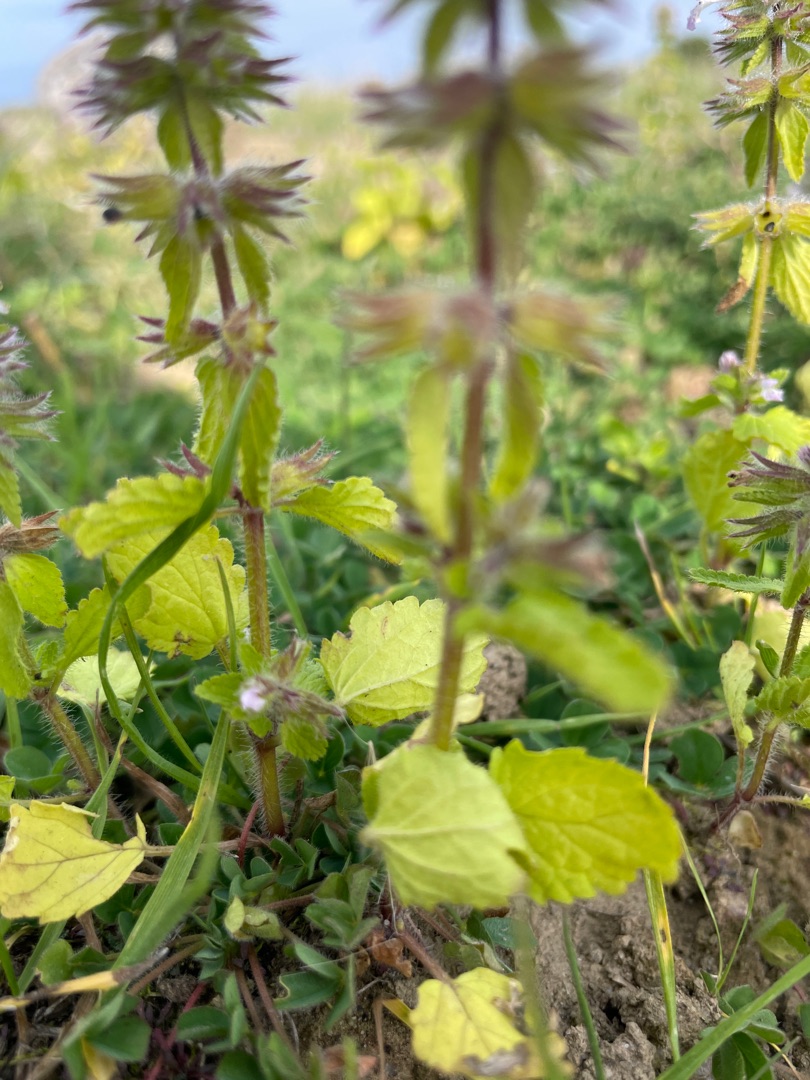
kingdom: Plantae
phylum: Tracheophyta
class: Magnoliopsida
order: Lamiales
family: Lamiaceae
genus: Stachys
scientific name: Stachys arvensis
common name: Ager-galtetand
